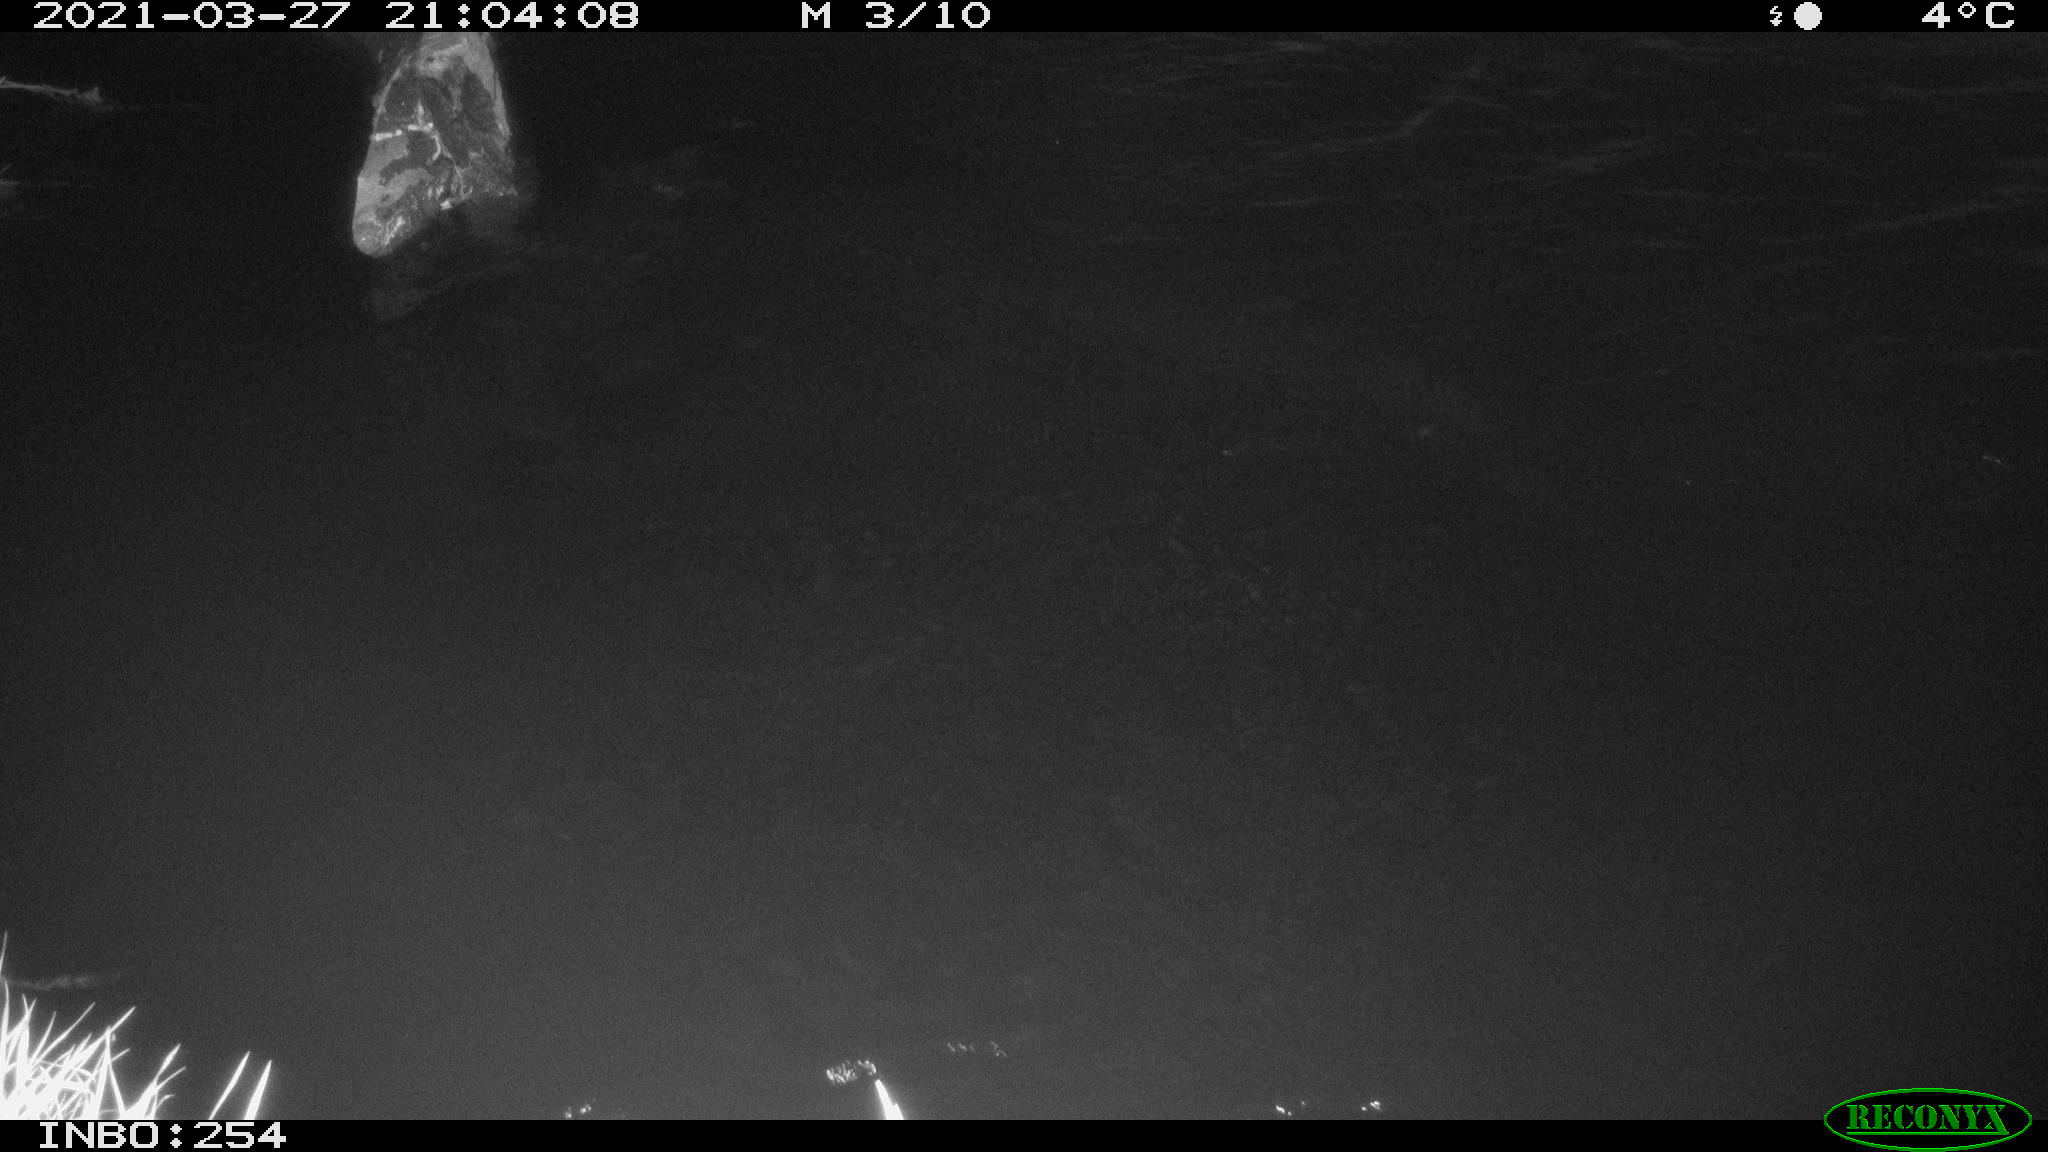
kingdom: Animalia
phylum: Chordata
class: Mammalia
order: Rodentia
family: Muridae
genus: Rattus
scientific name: Rattus norvegicus
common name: Brown rat
